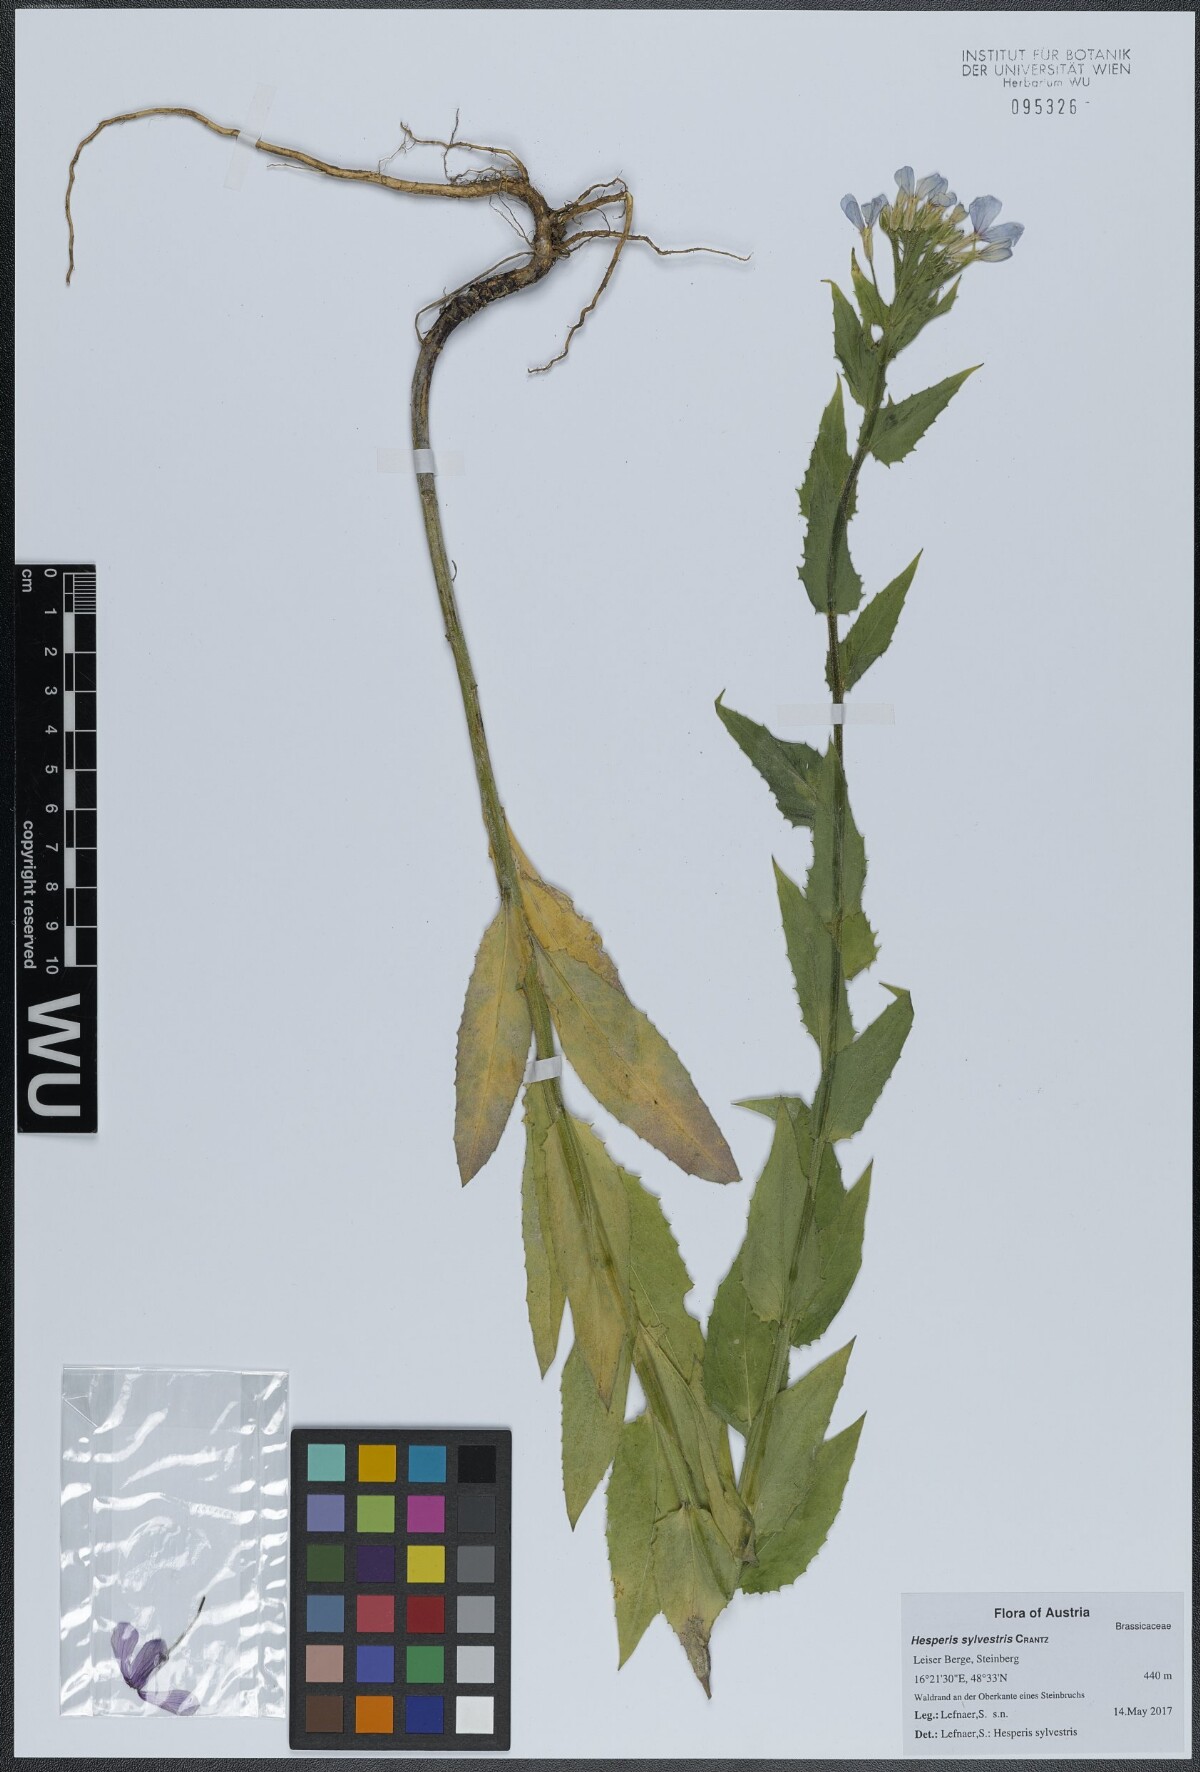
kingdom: Plantae
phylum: Tracheophyta
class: Magnoliopsida
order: Brassicales
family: Brassicaceae
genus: Hesperis
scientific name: Hesperis sylvestris
